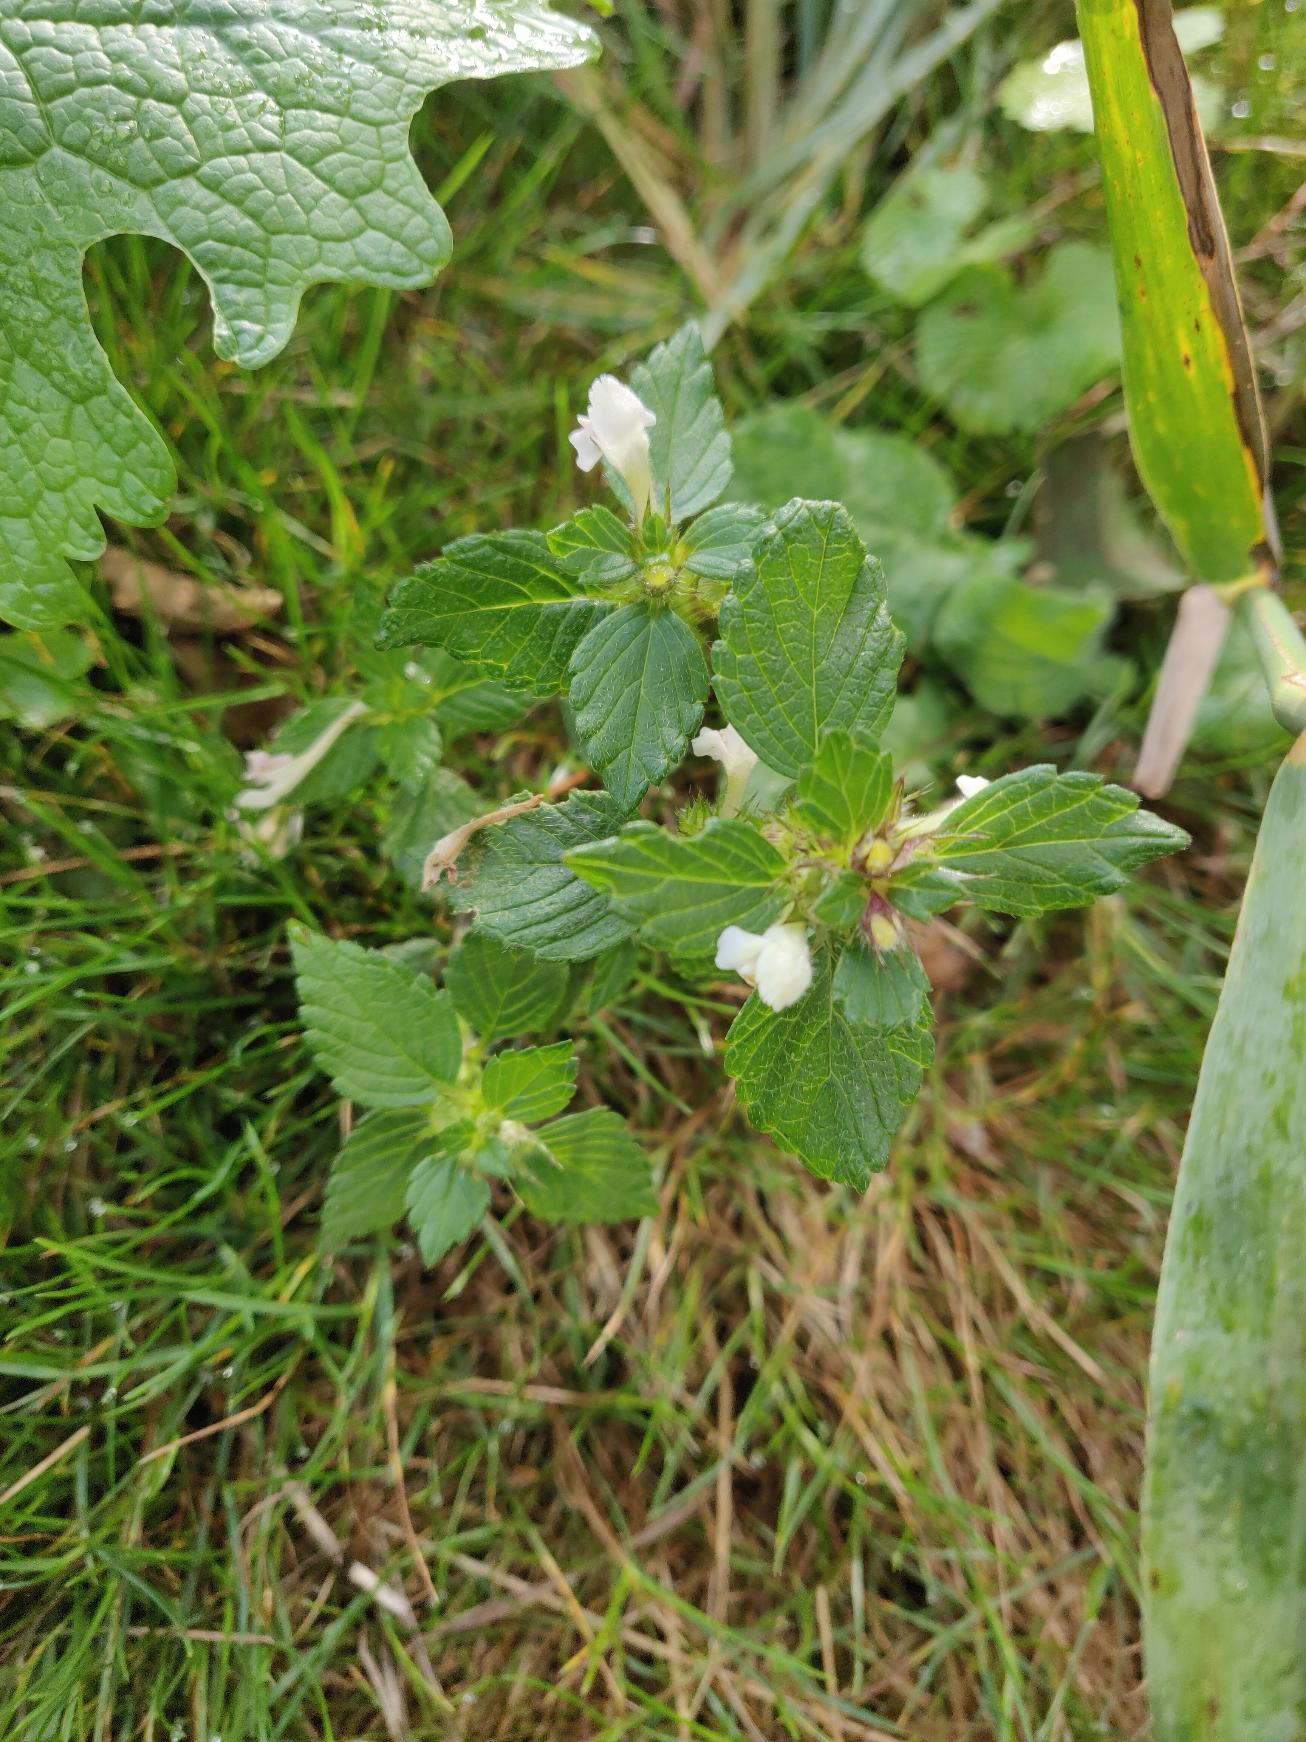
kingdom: Plantae
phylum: Tracheophyta
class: Magnoliopsida
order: Lamiales
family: Lamiaceae
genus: Galeopsis
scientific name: Galeopsis tetrahit
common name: Almindelig hanekro
